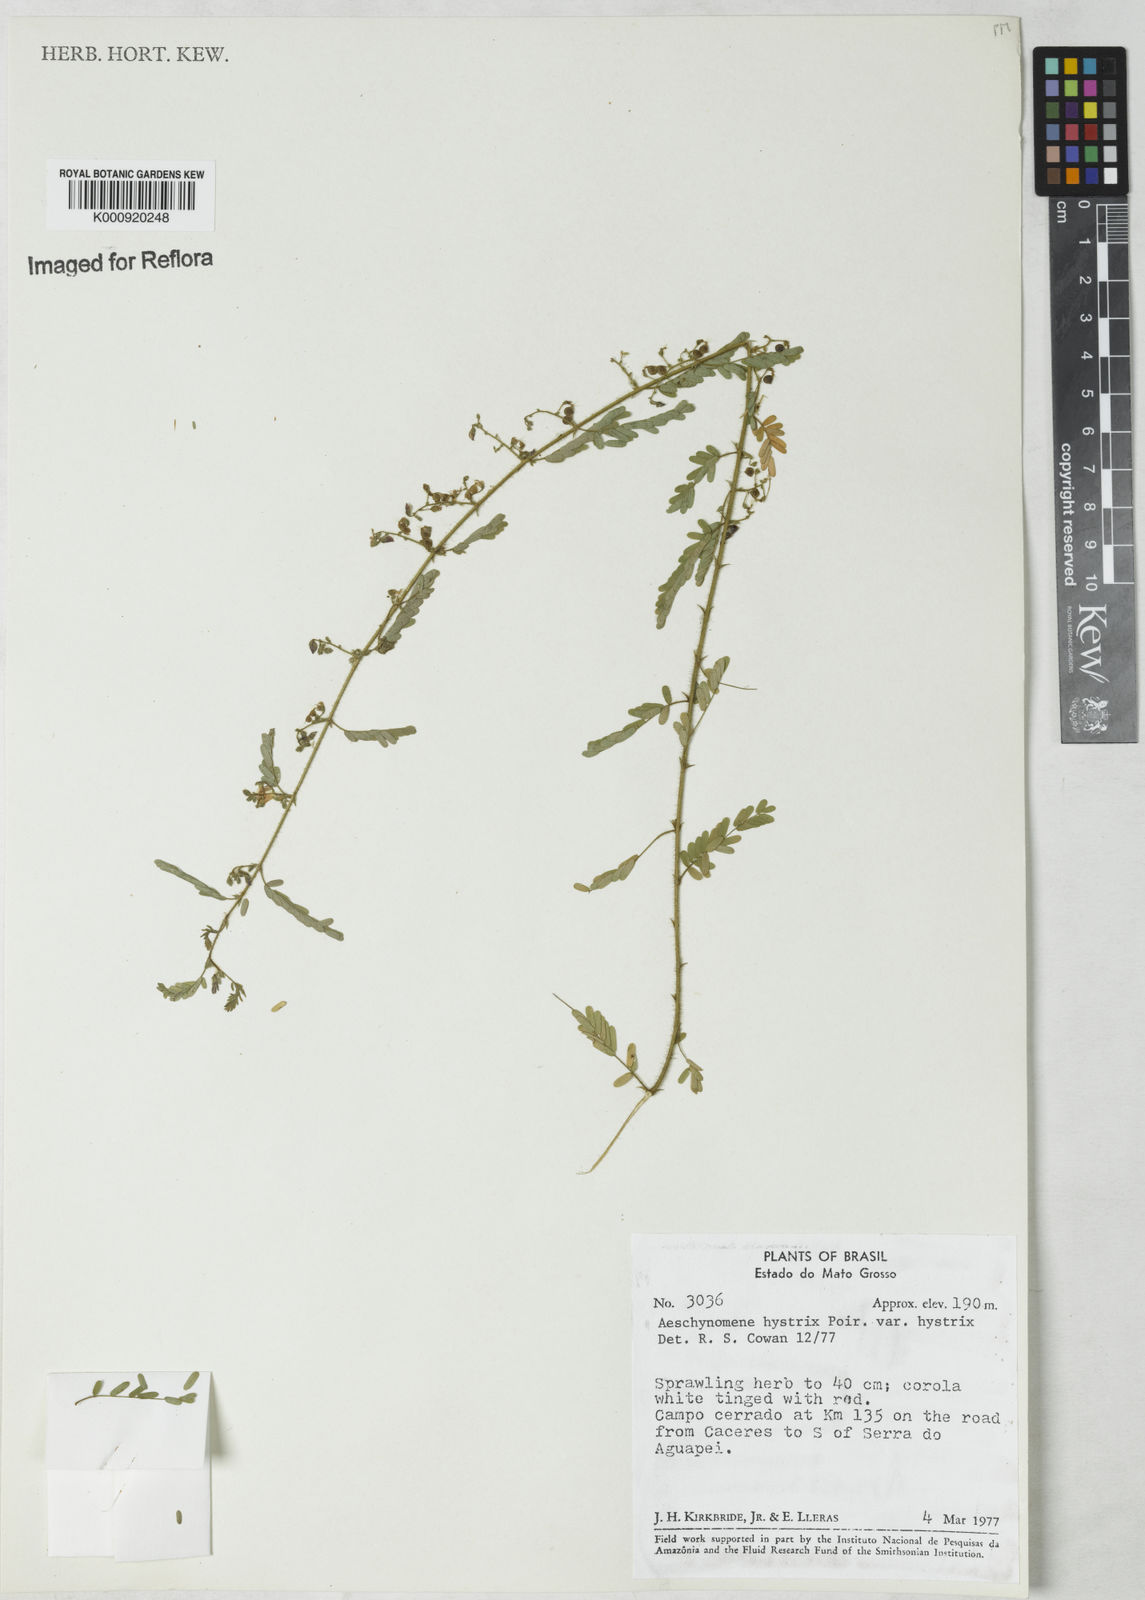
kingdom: Plantae
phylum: Tracheophyta
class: Magnoliopsida
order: Fabales
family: Fabaceae
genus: Ctenodon
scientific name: Ctenodon histrix
